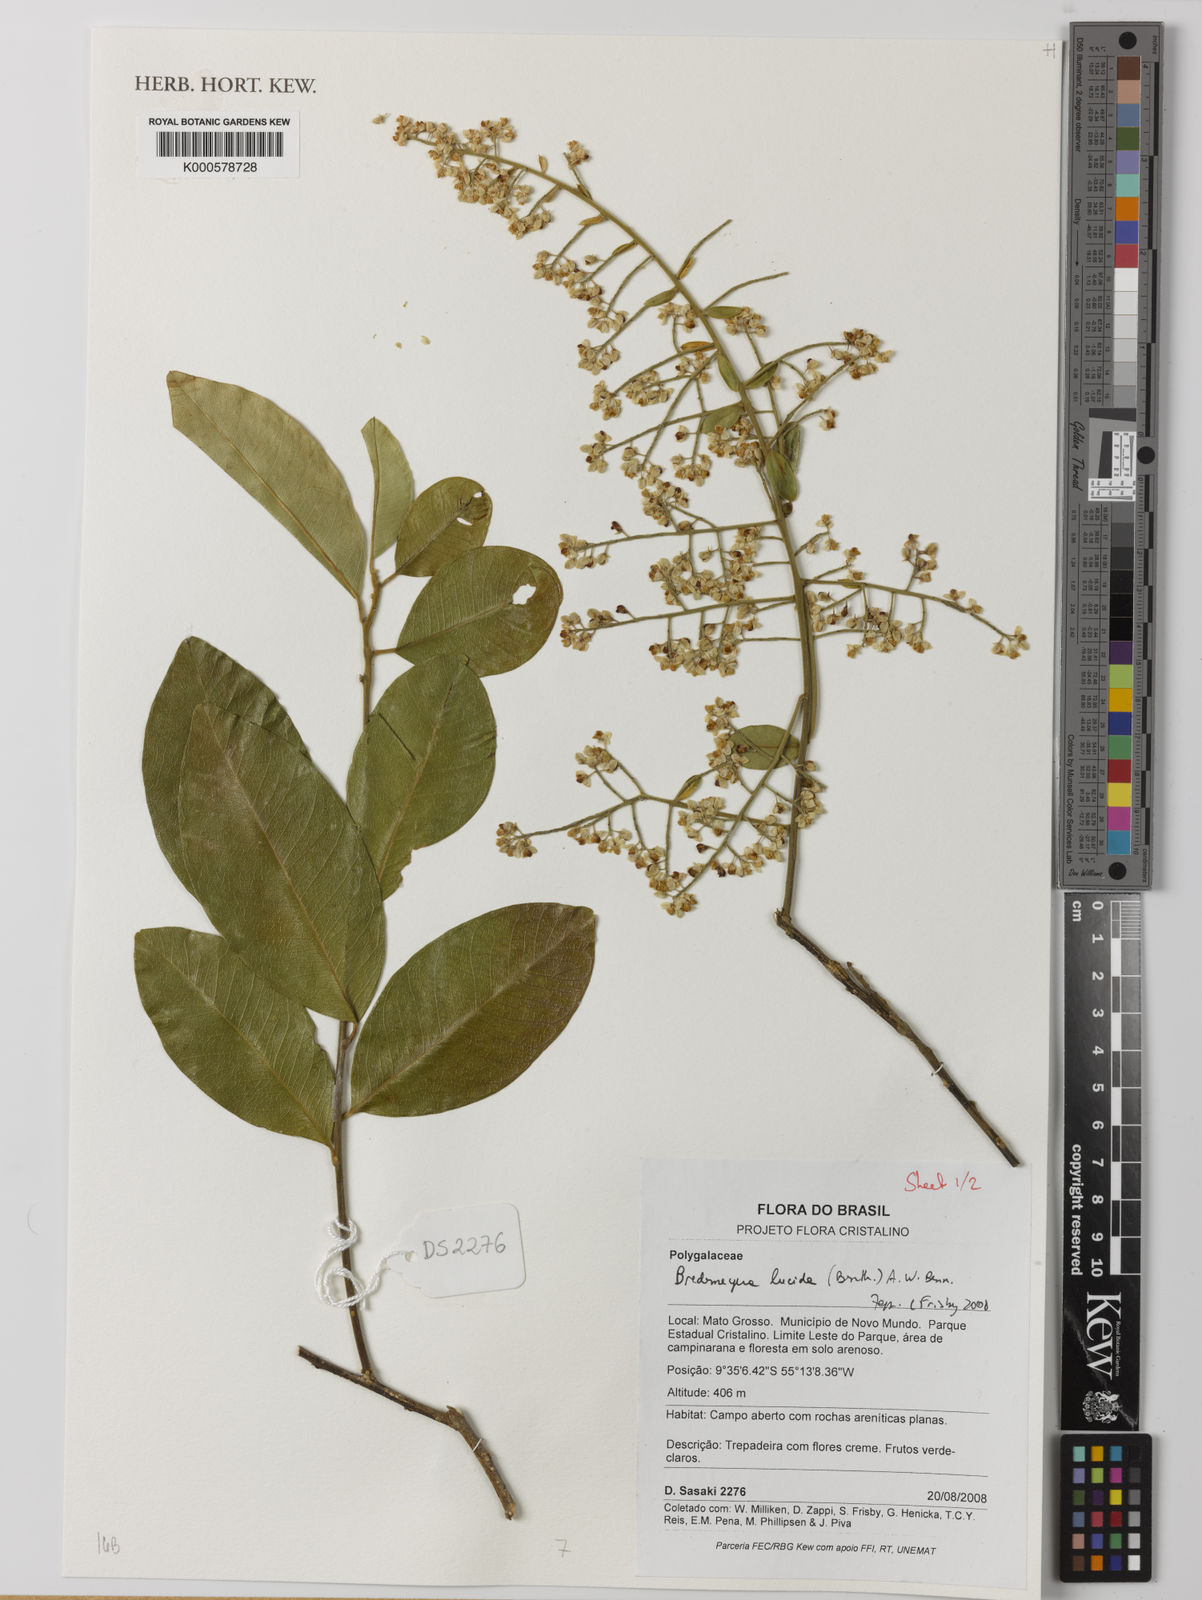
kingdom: Plantae
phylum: Tracheophyta
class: Magnoliopsida
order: Fabales
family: Polygalaceae
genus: Bredemeyera
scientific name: Bredemeyera
